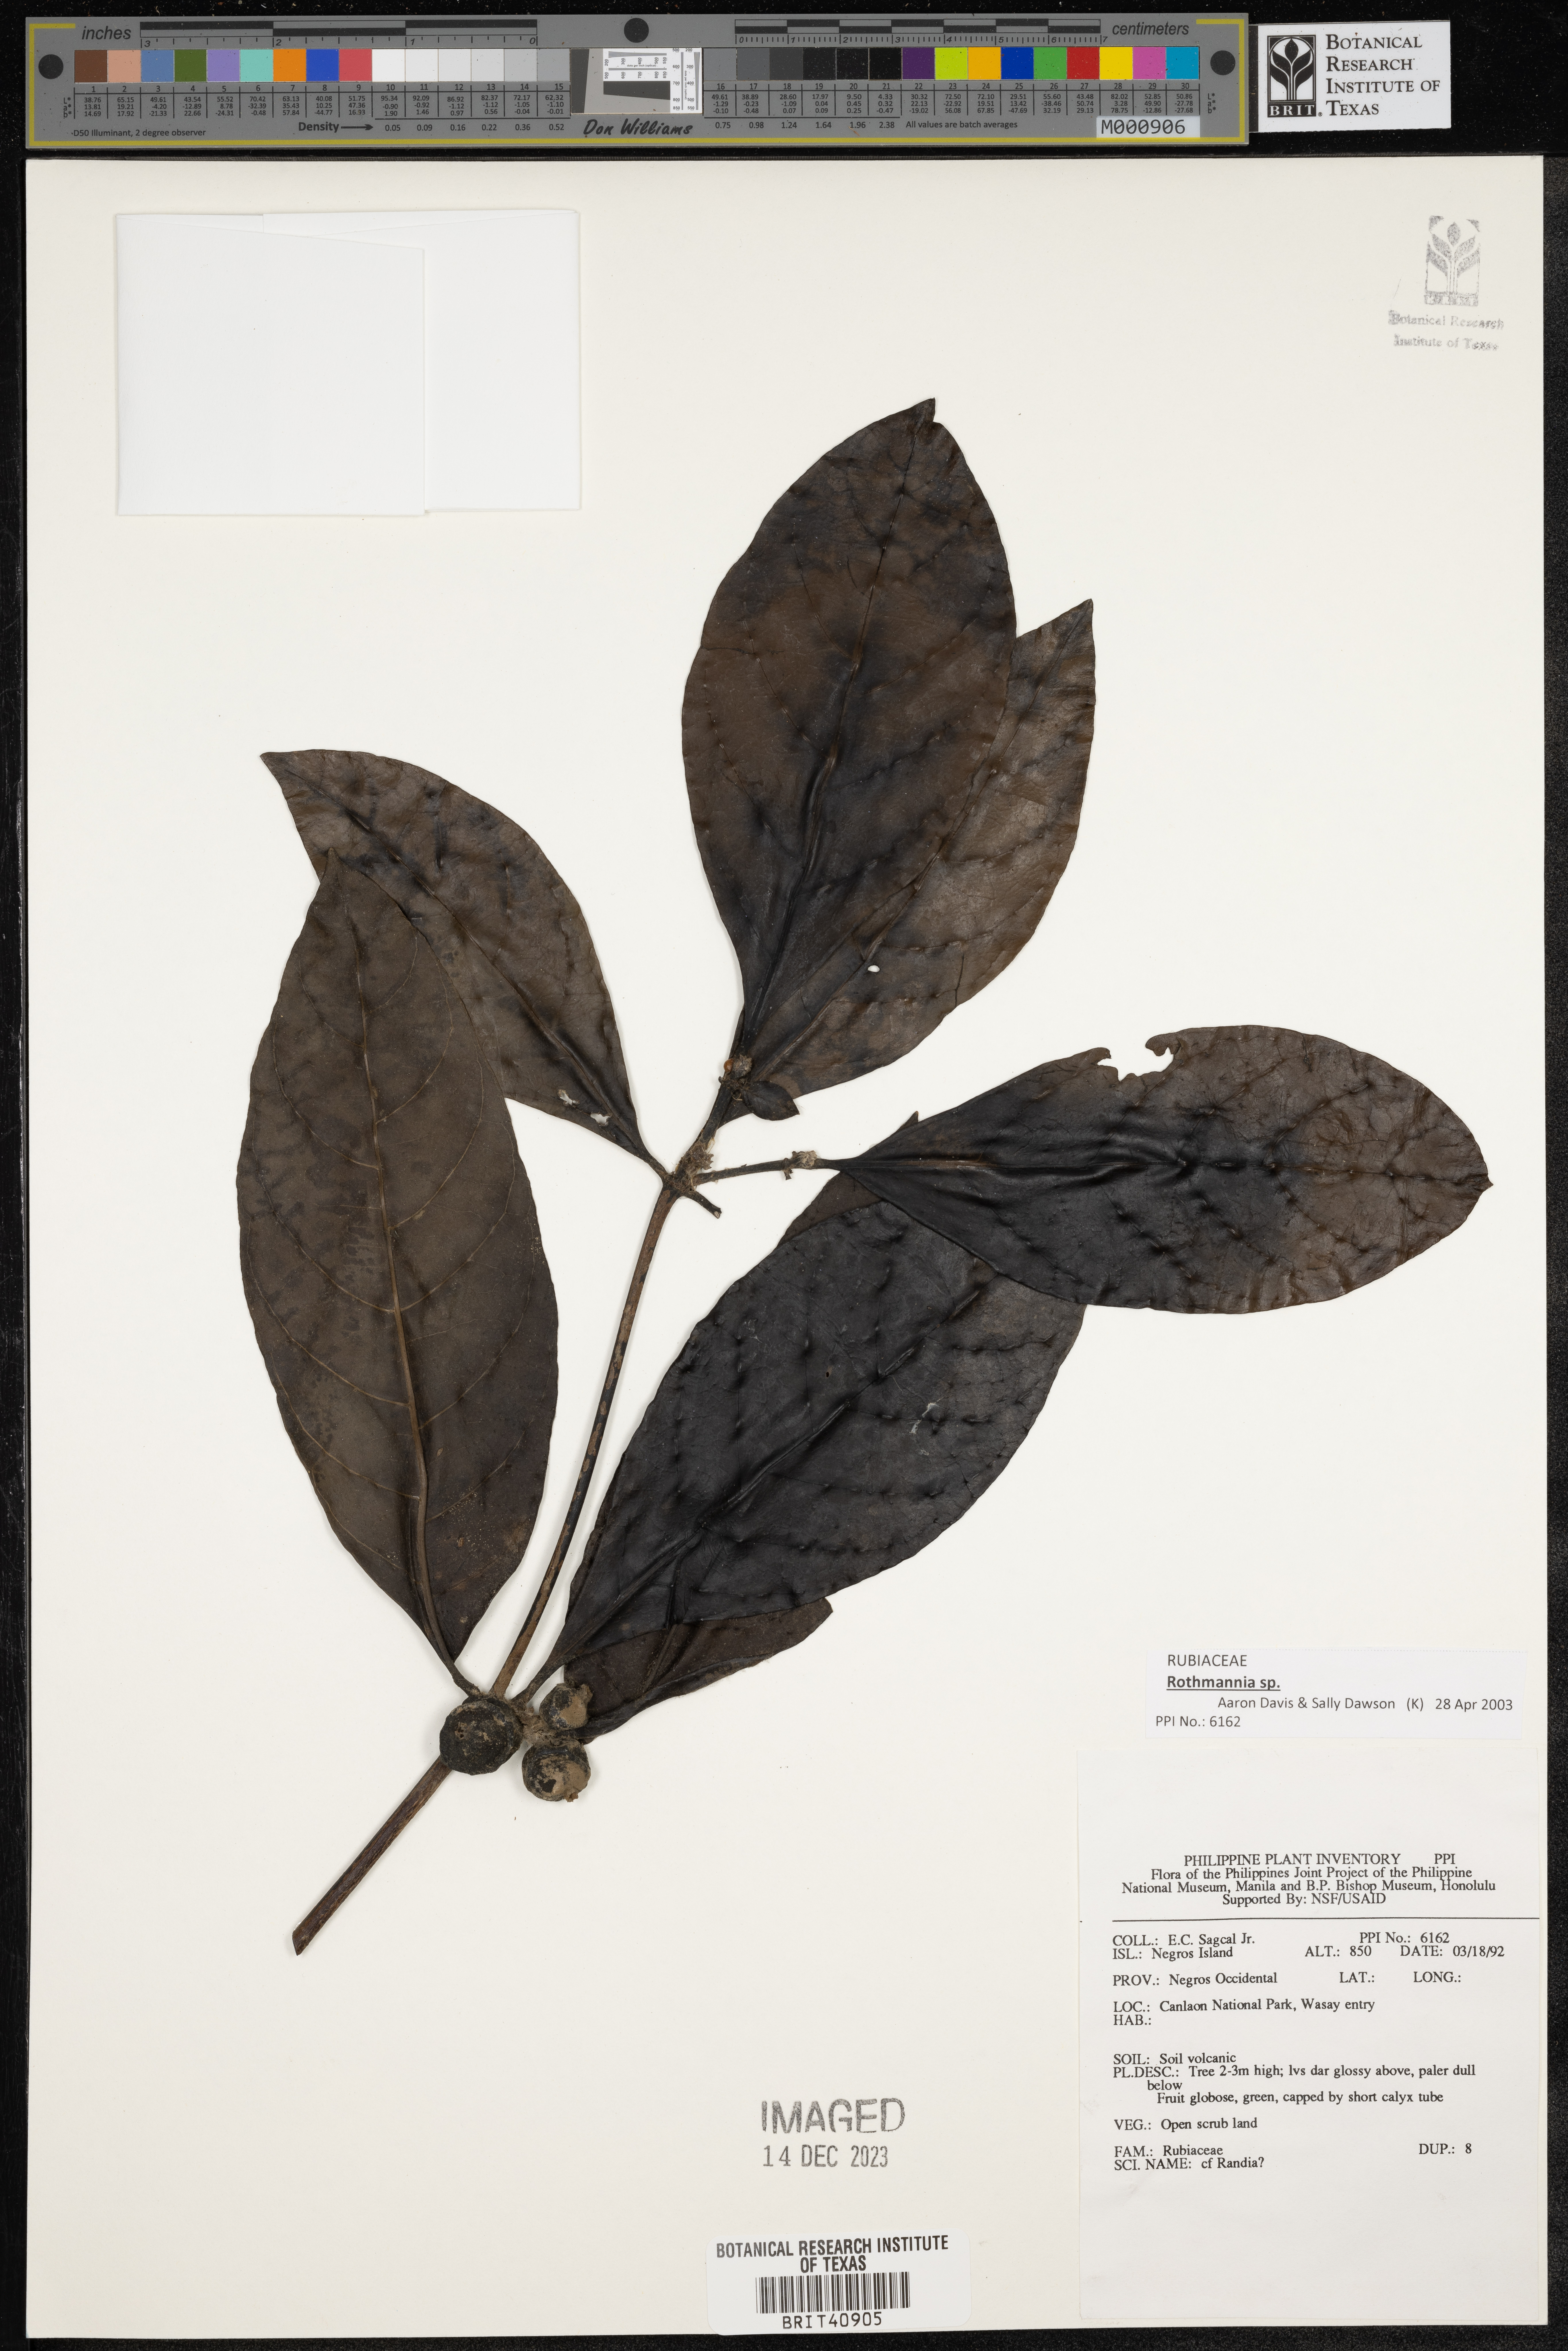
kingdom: Plantae
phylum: Tracheophyta
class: Magnoliopsida
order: Gentianales
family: Rubiaceae
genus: Randia
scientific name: Randia
